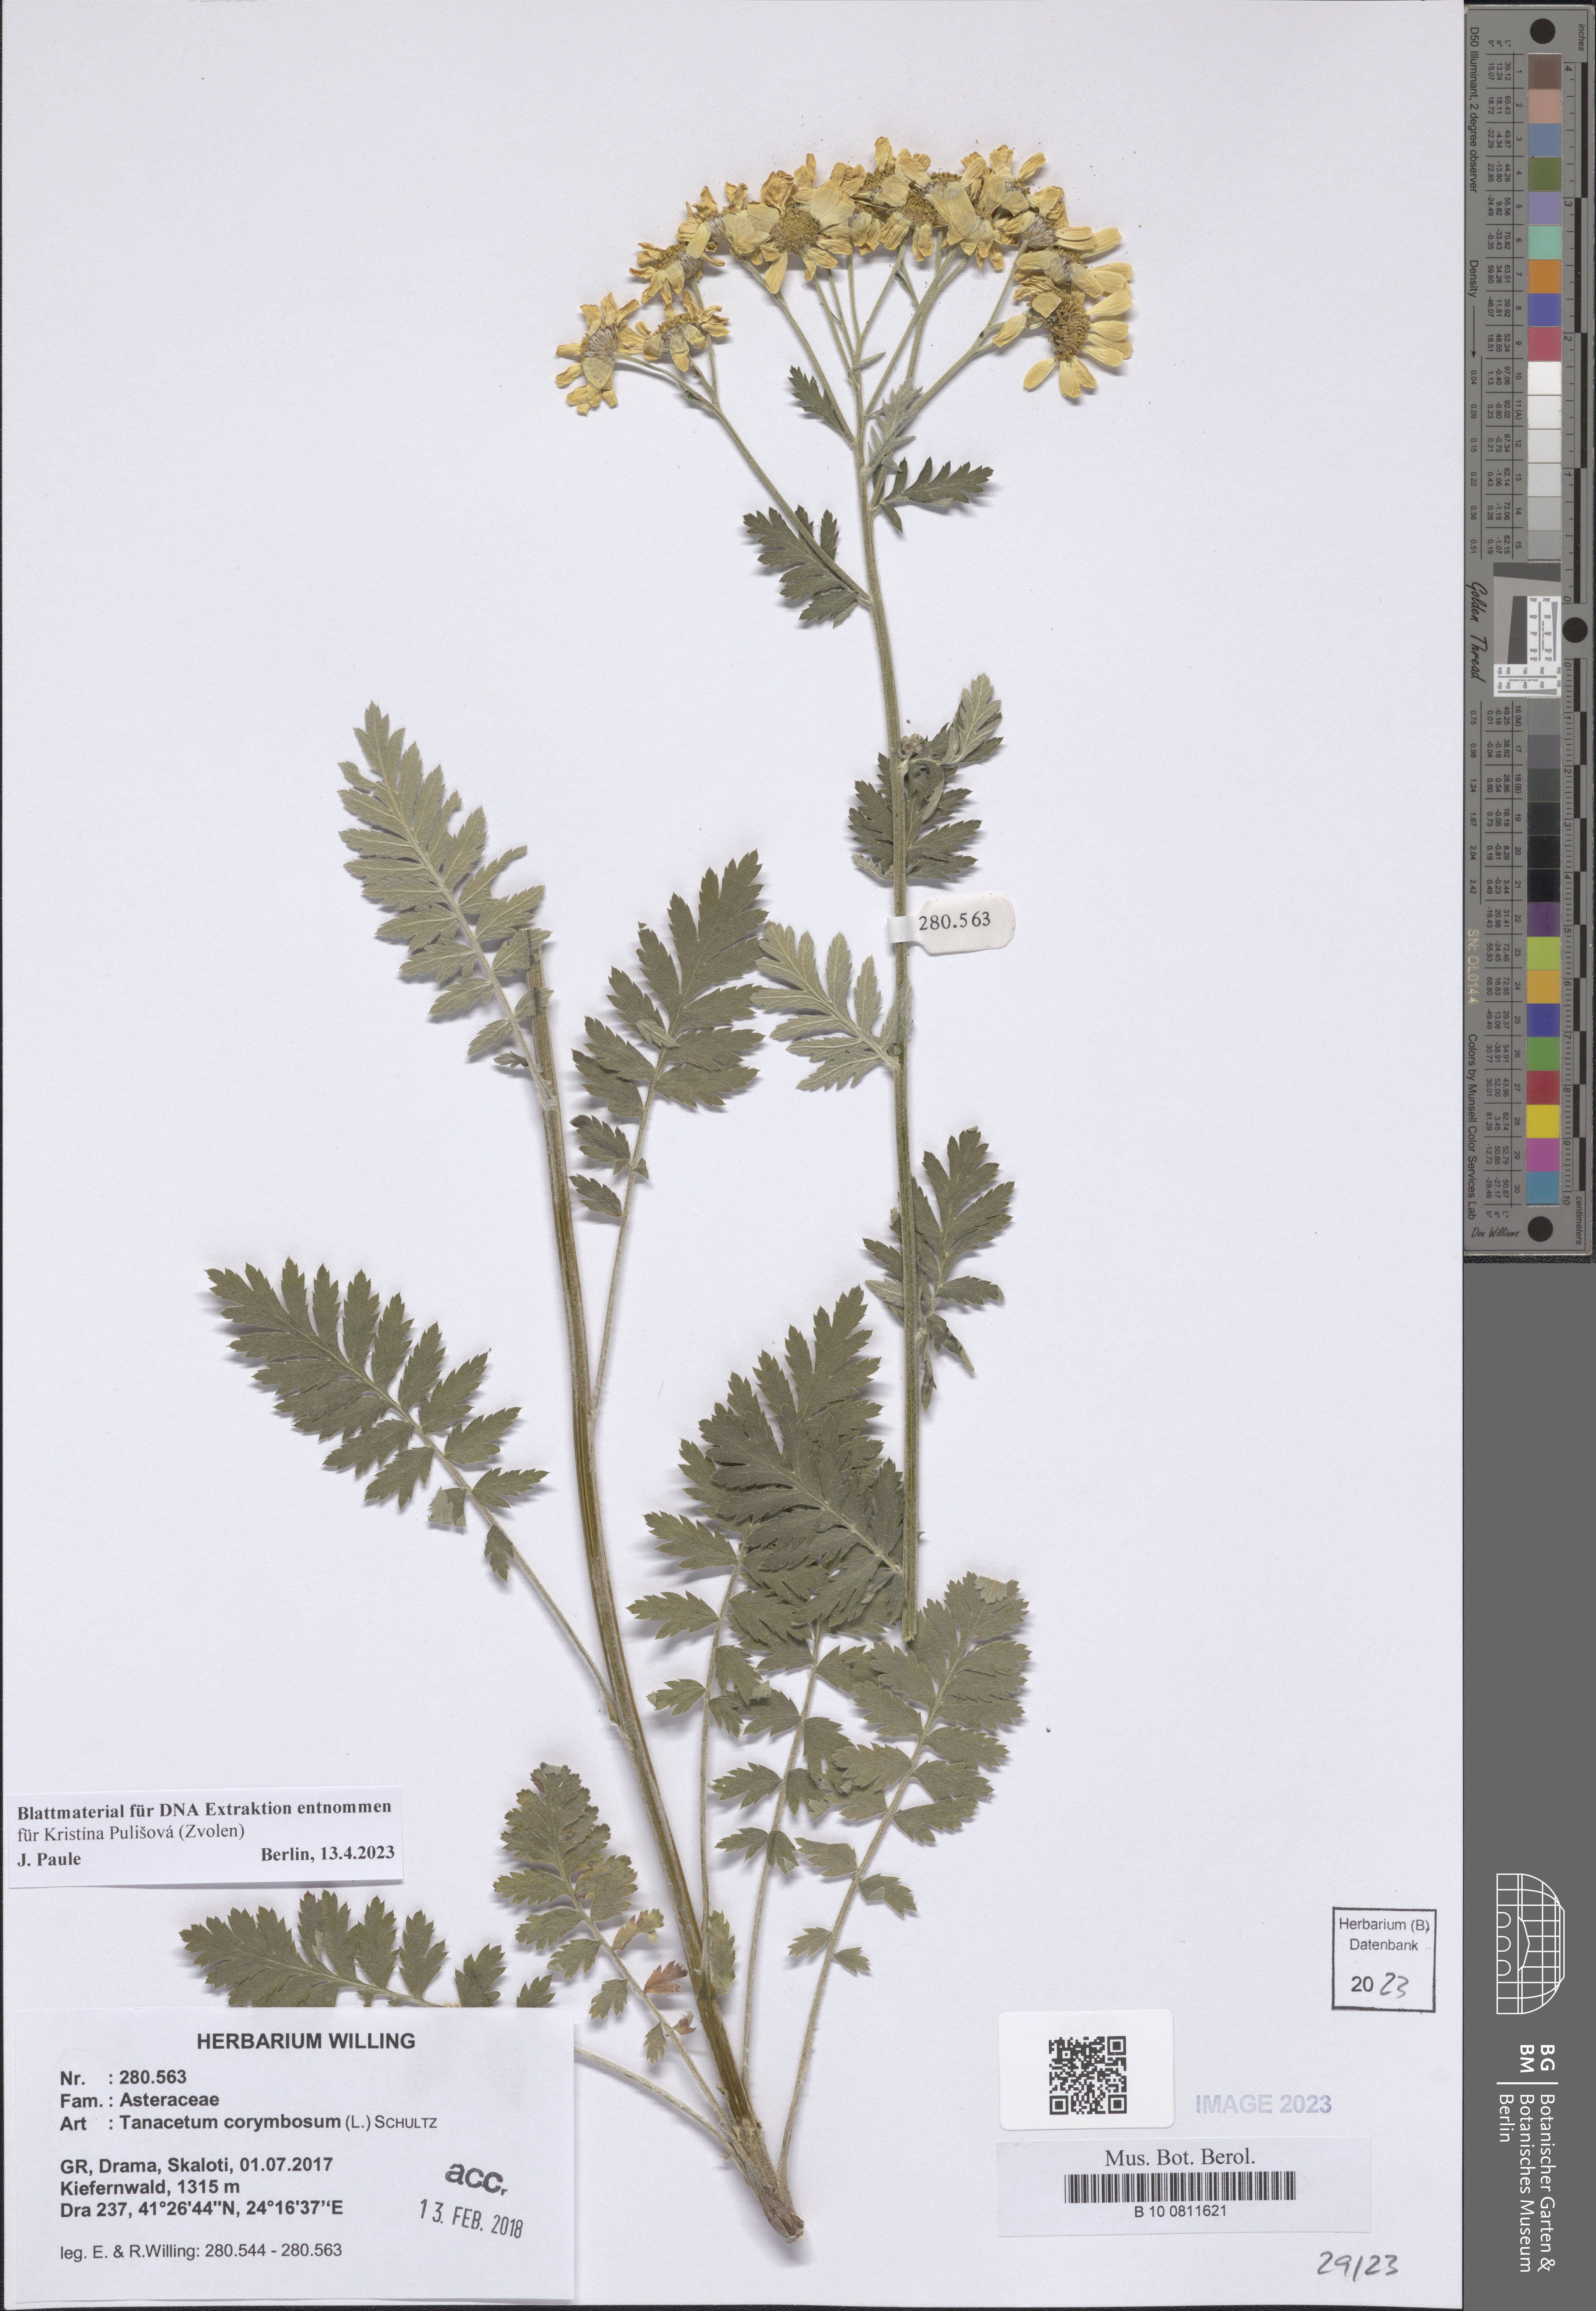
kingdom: Plantae
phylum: Tracheophyta
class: Magnoliopsida
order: Asterales
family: Asteraceae
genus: Tanacetum
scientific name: Tanacetum corymbosum
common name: Scentless feverfew
